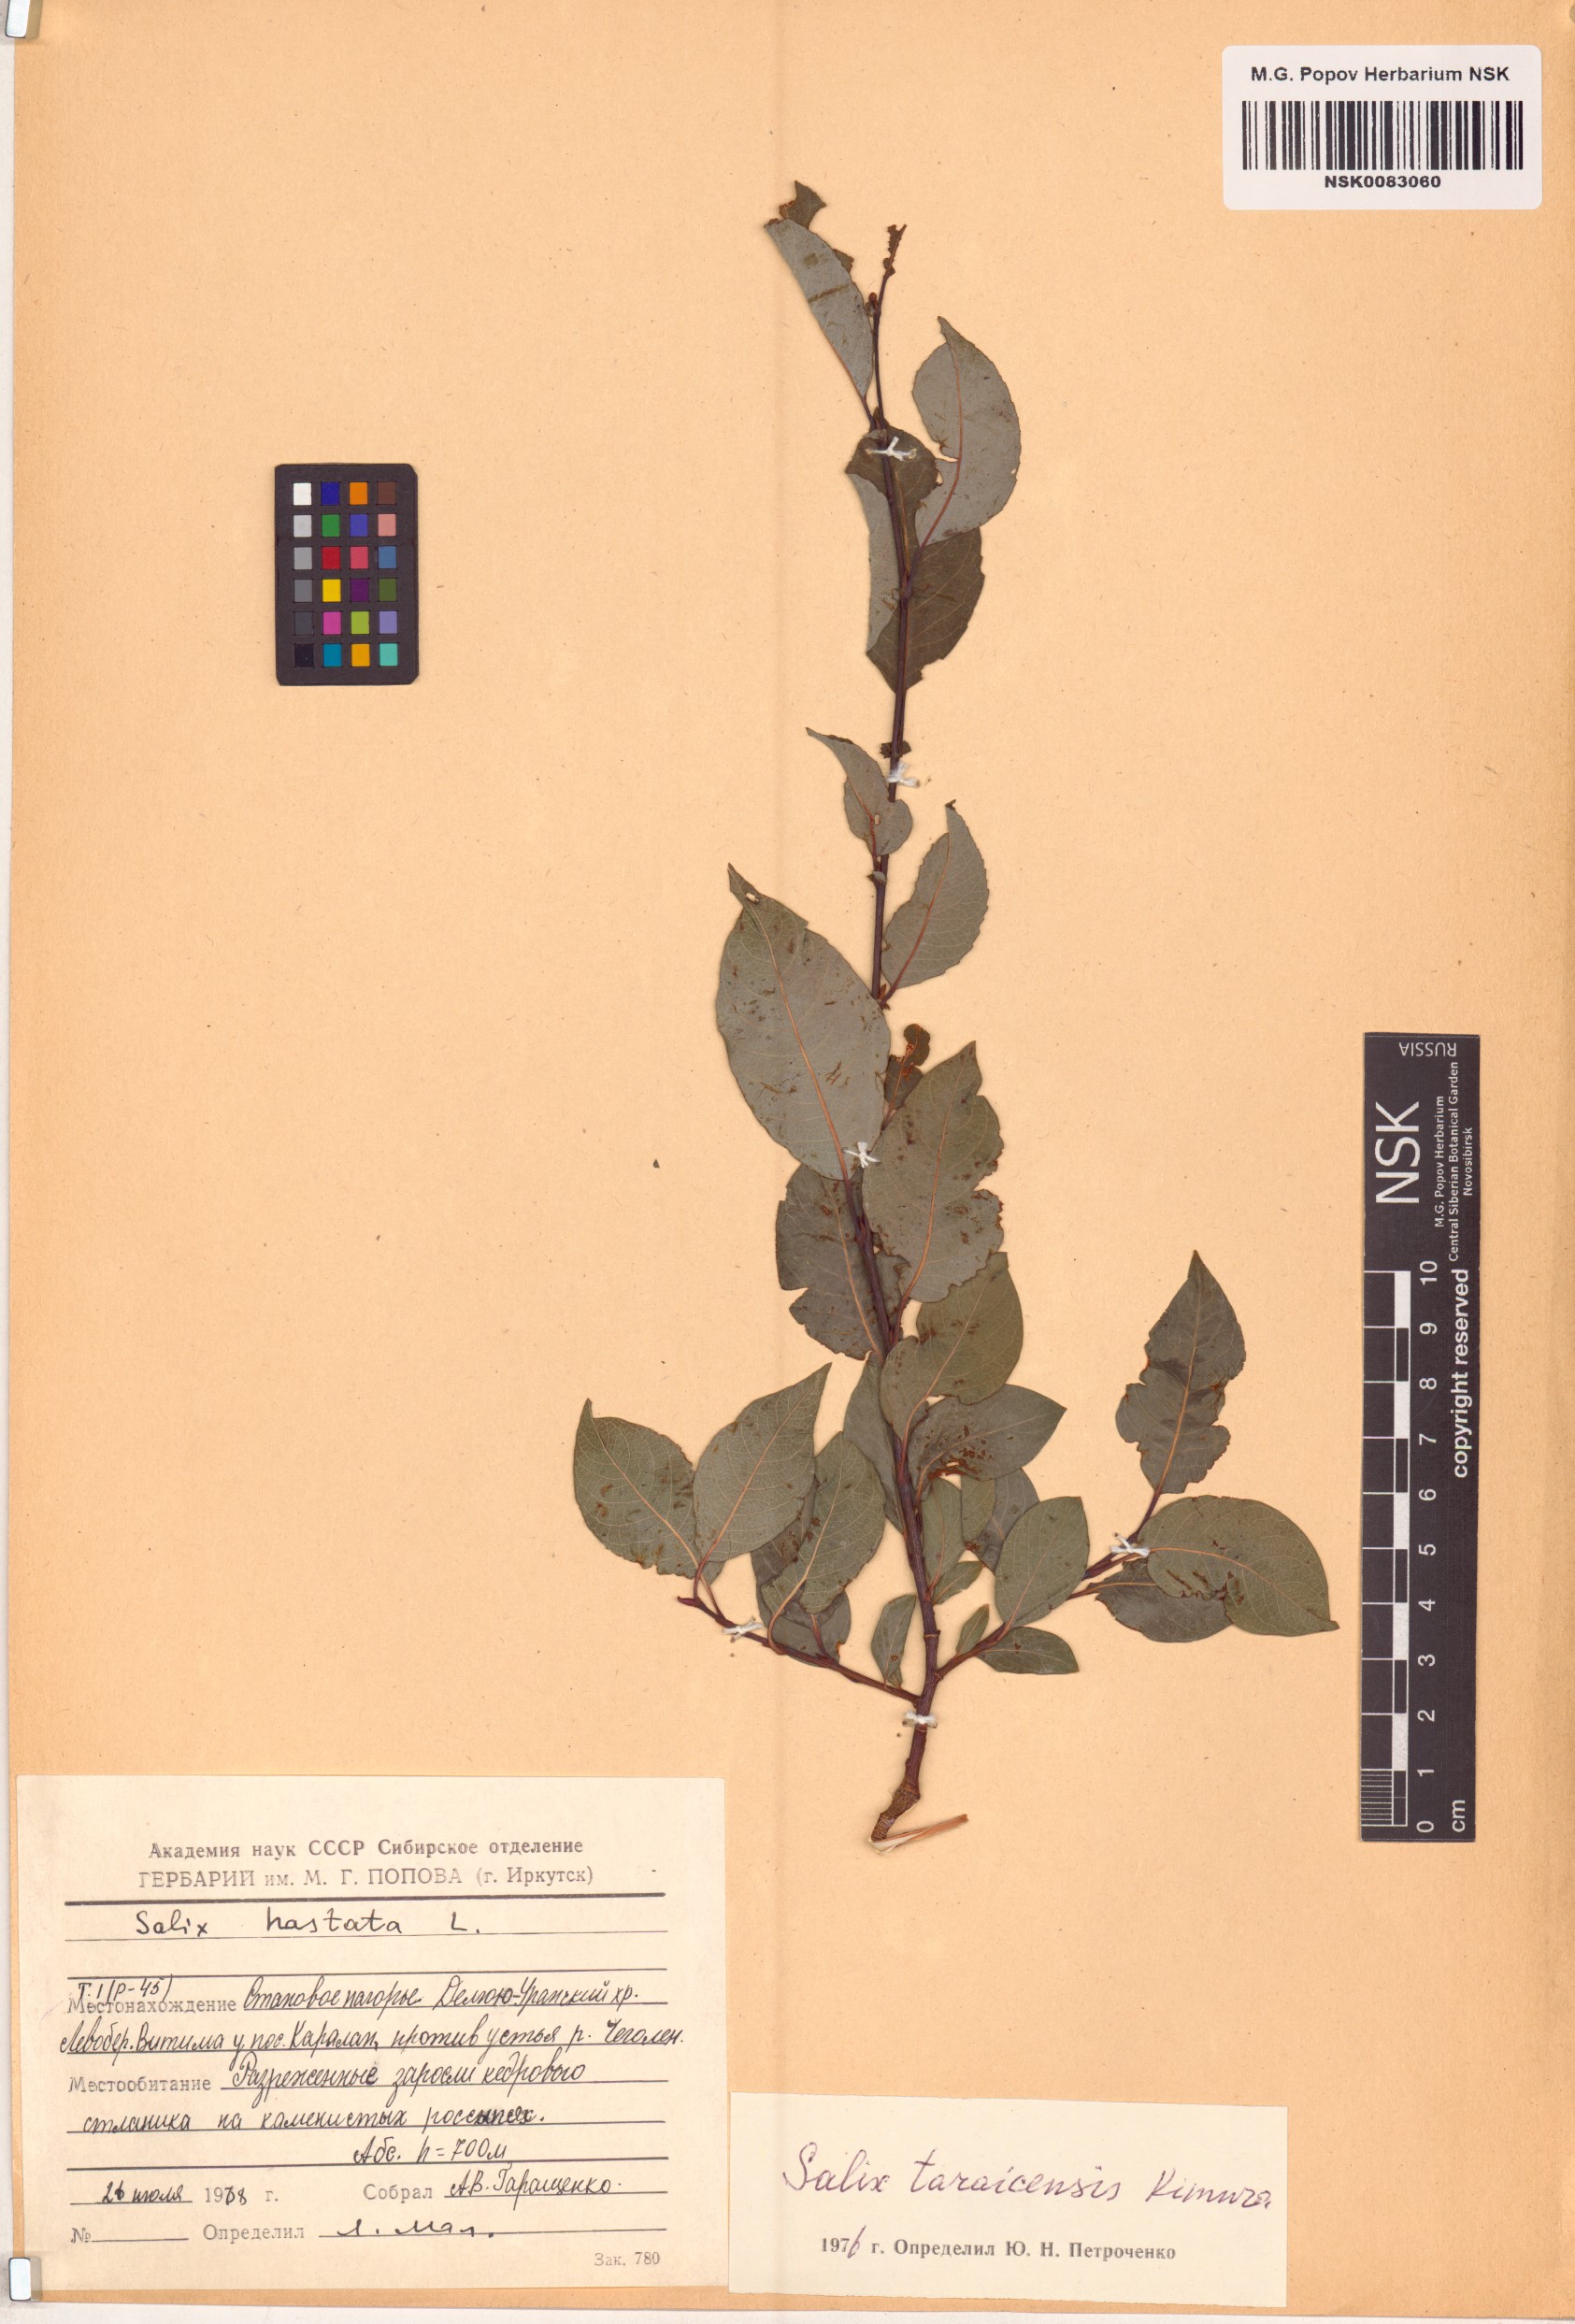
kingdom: Plantae
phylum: Tracheophyta
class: Magnoliopsida
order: Malpighiales
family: Salicaceae
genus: Salix
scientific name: Salix taraikensis
